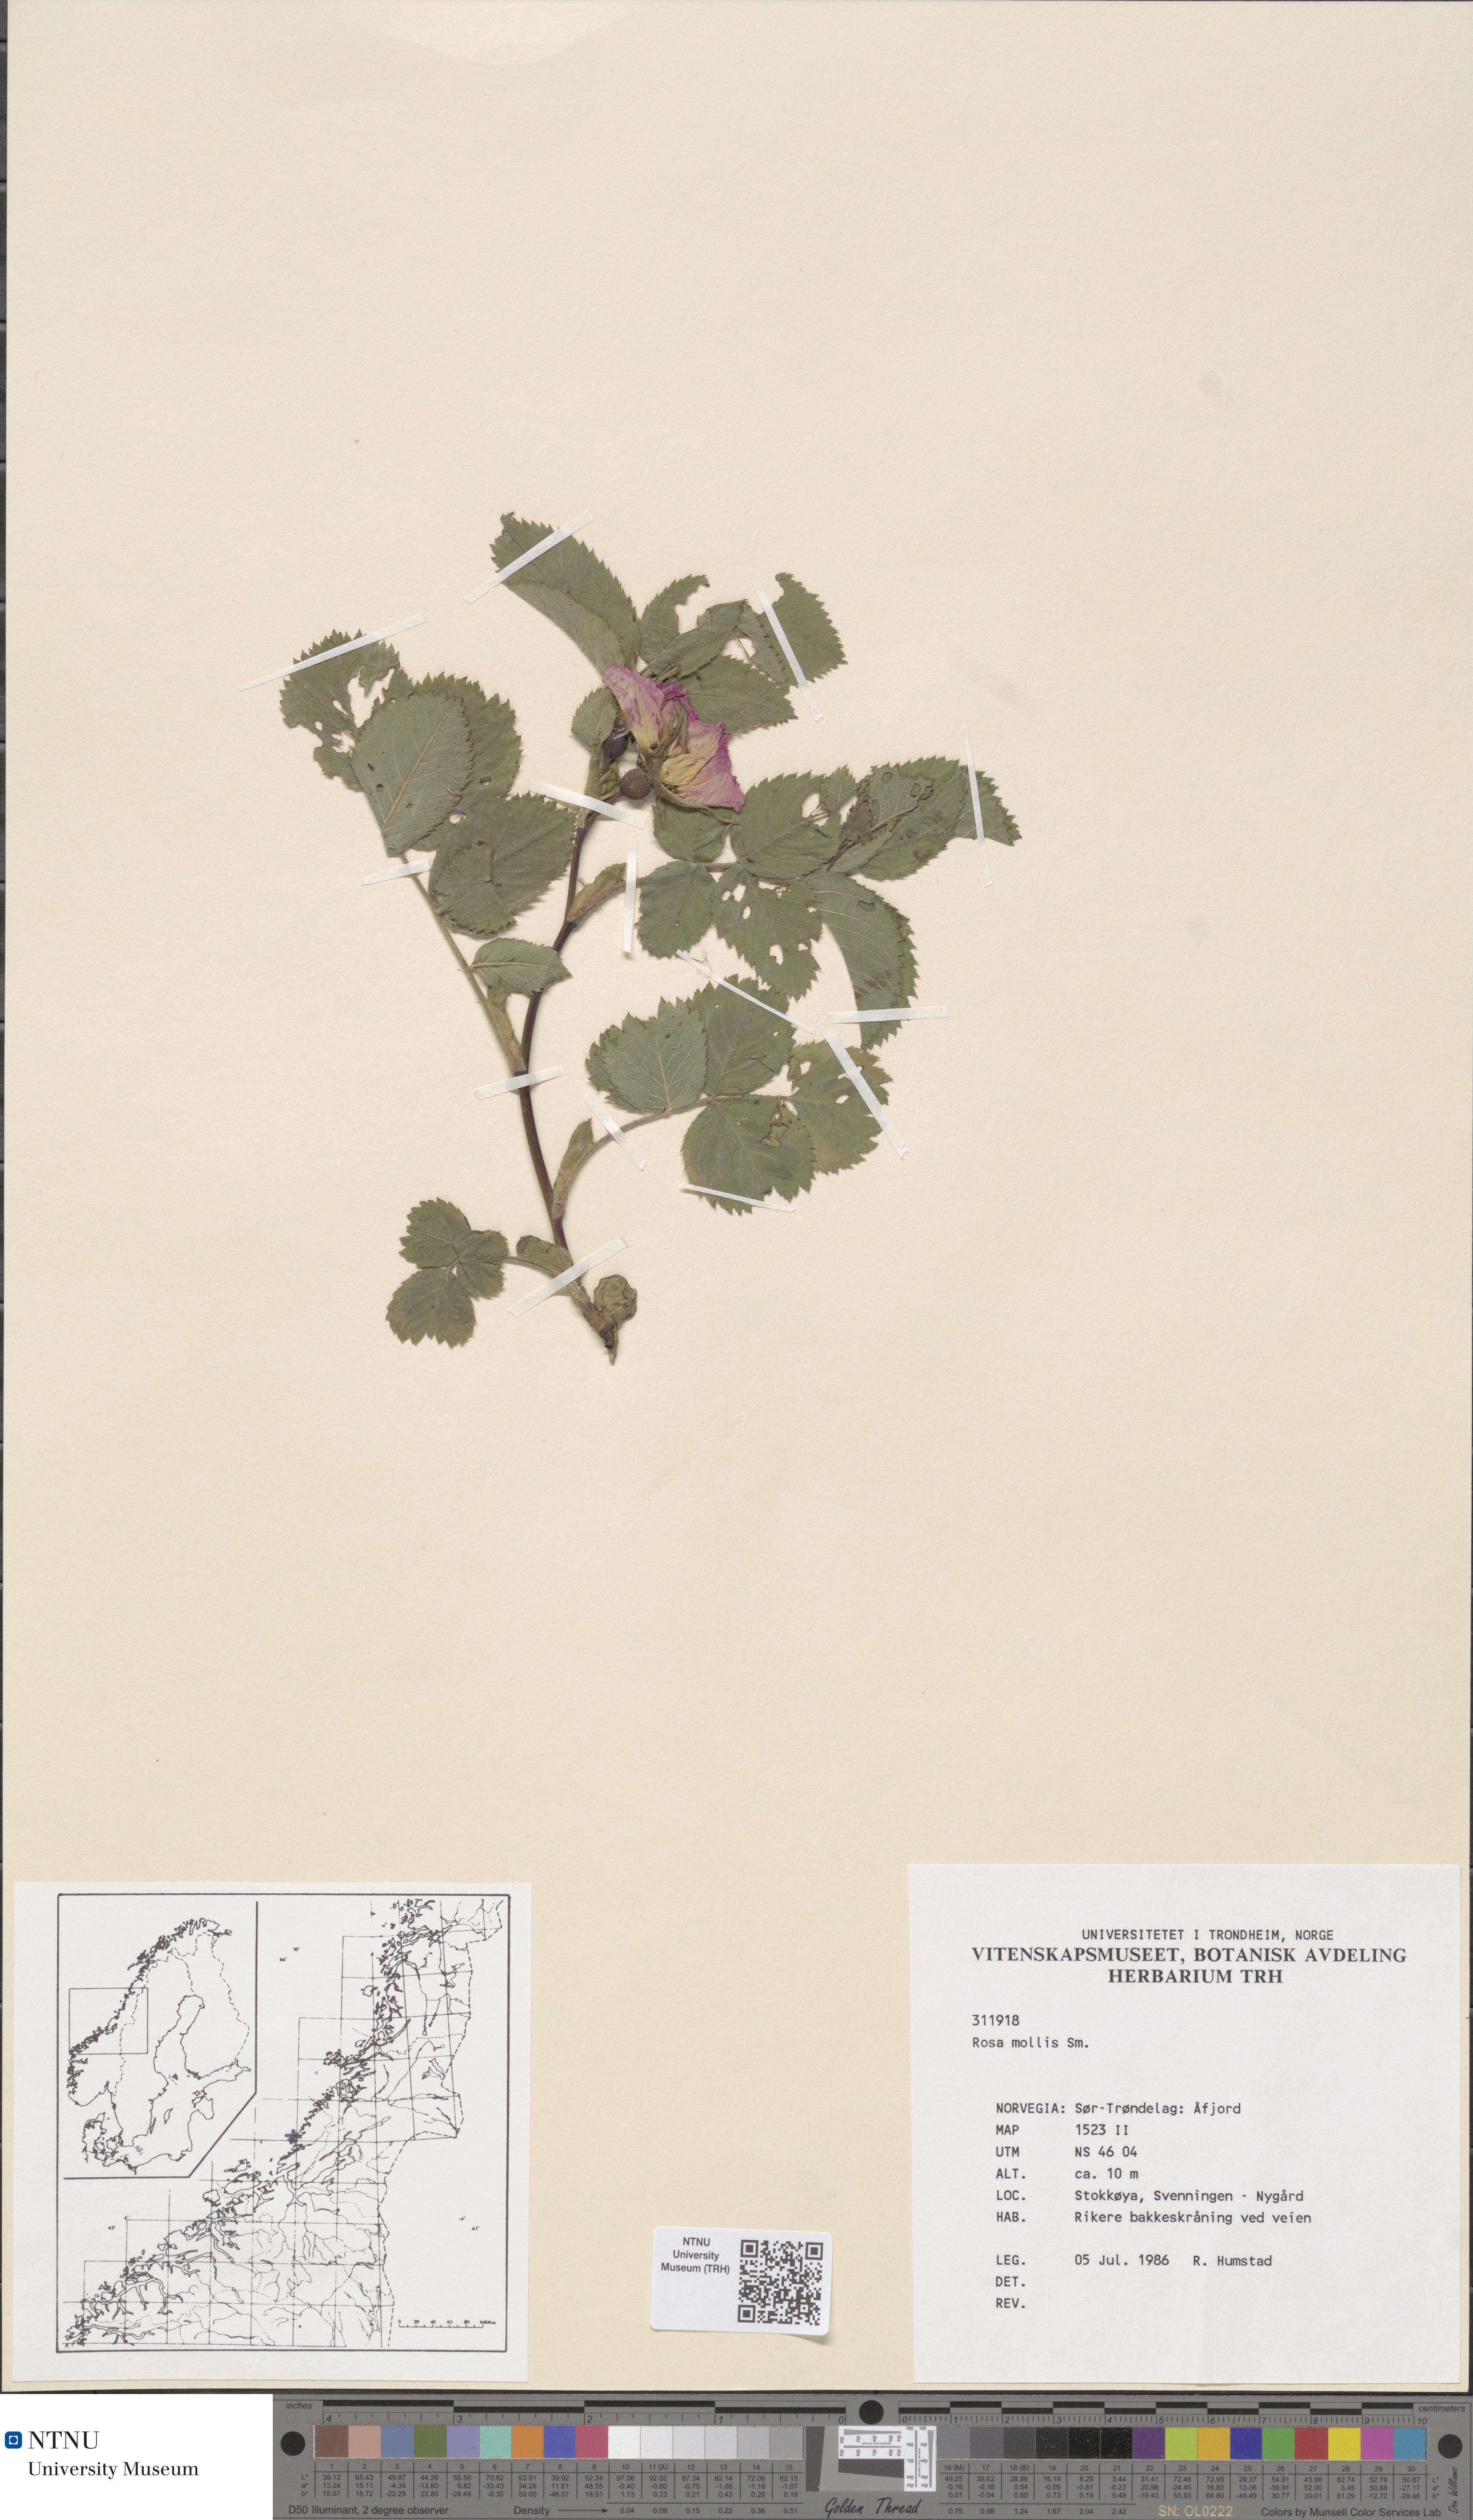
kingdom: Plantae
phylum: Tracheophyta
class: Magnoliopsida
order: Rosales
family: Rosaceae
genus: Rosa
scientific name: Rosa mollis
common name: Rose
